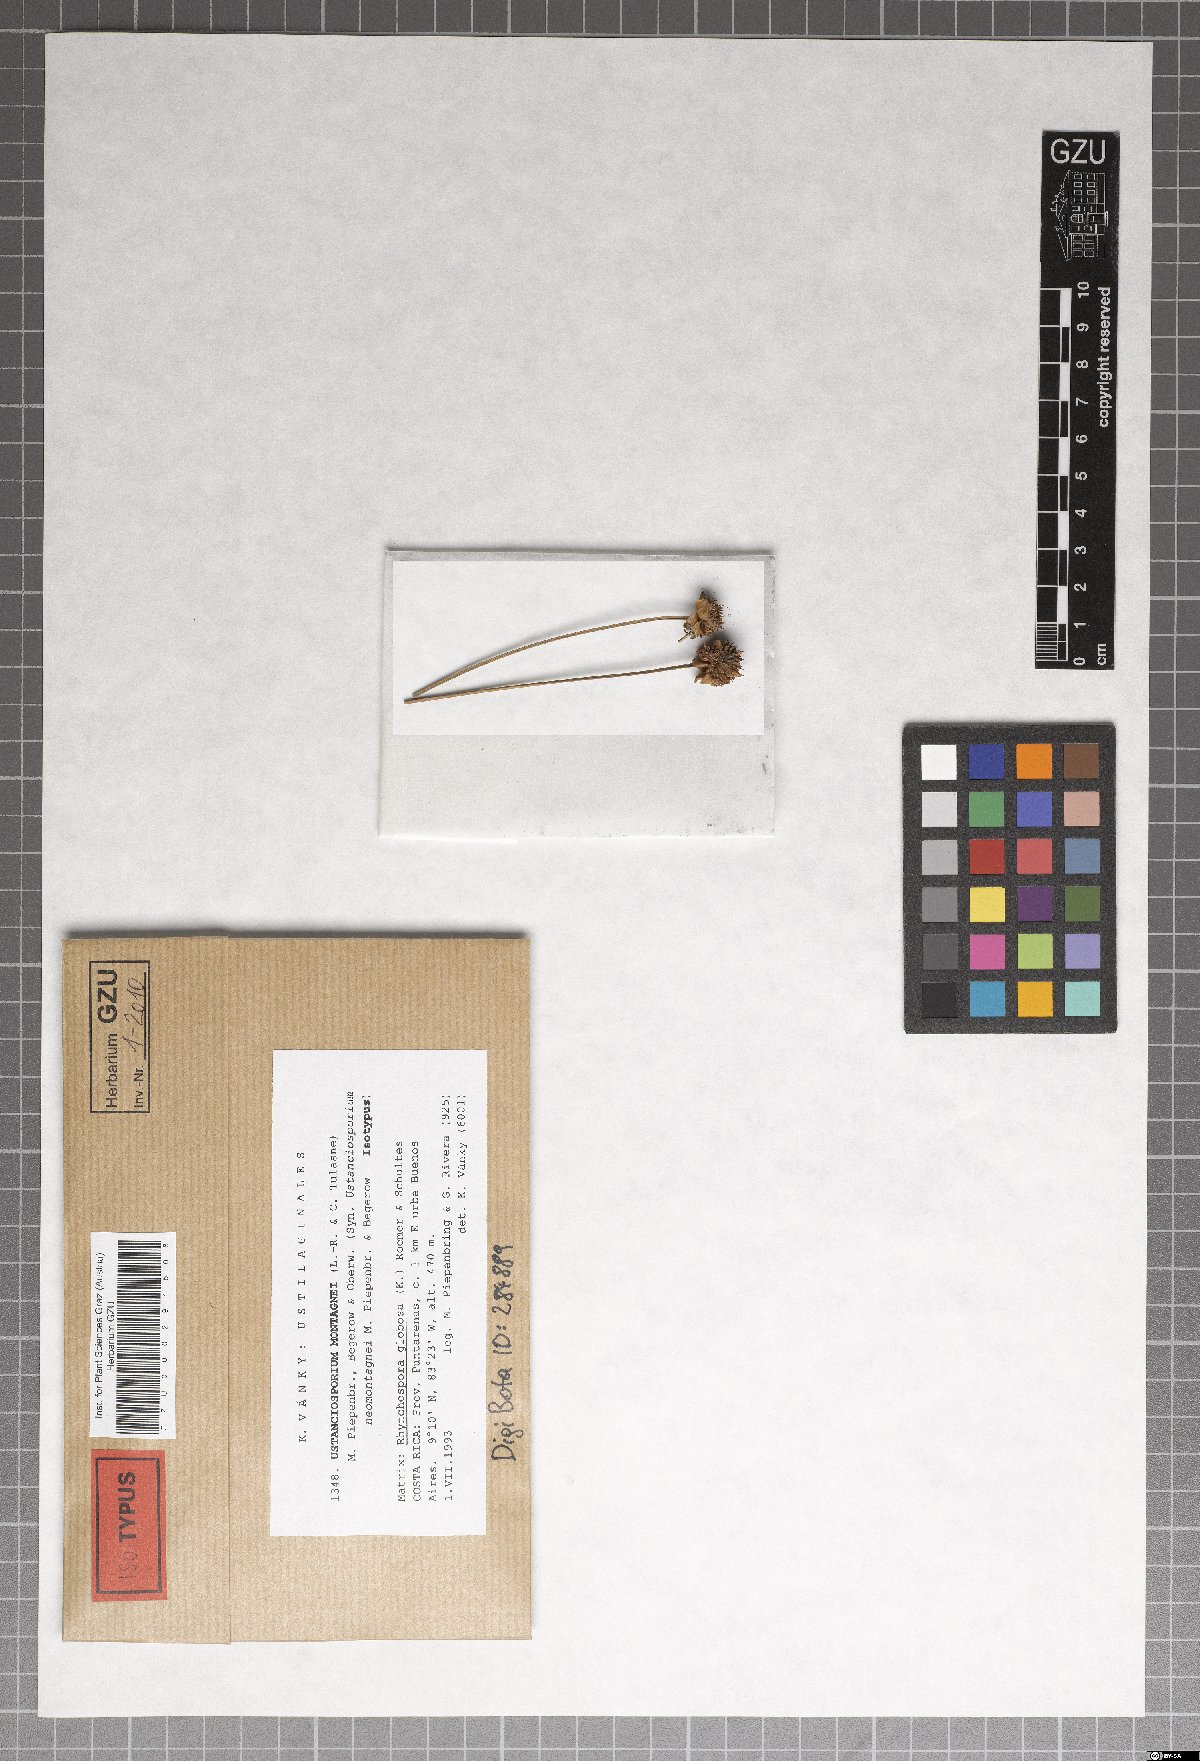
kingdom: Fungi
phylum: Basidiomycota
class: Ustilaginomycetes
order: Ustilaginales
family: Anthracoideaceae
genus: Ustanciosporium
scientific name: Ustanciosporium montagnei
